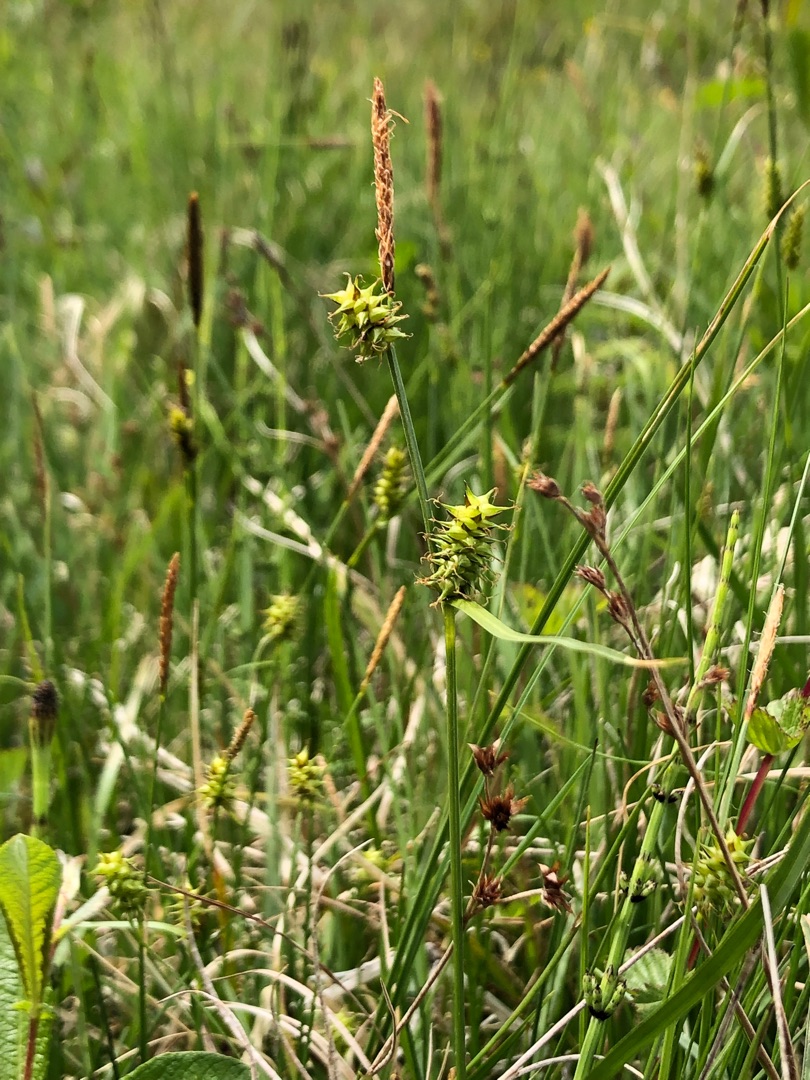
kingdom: Plantae
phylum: Tracheophyta
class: Liliopsida
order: Poales
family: Cyperaceae
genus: Carex
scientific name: Carex lepidocarpa
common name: Krognæb-star
